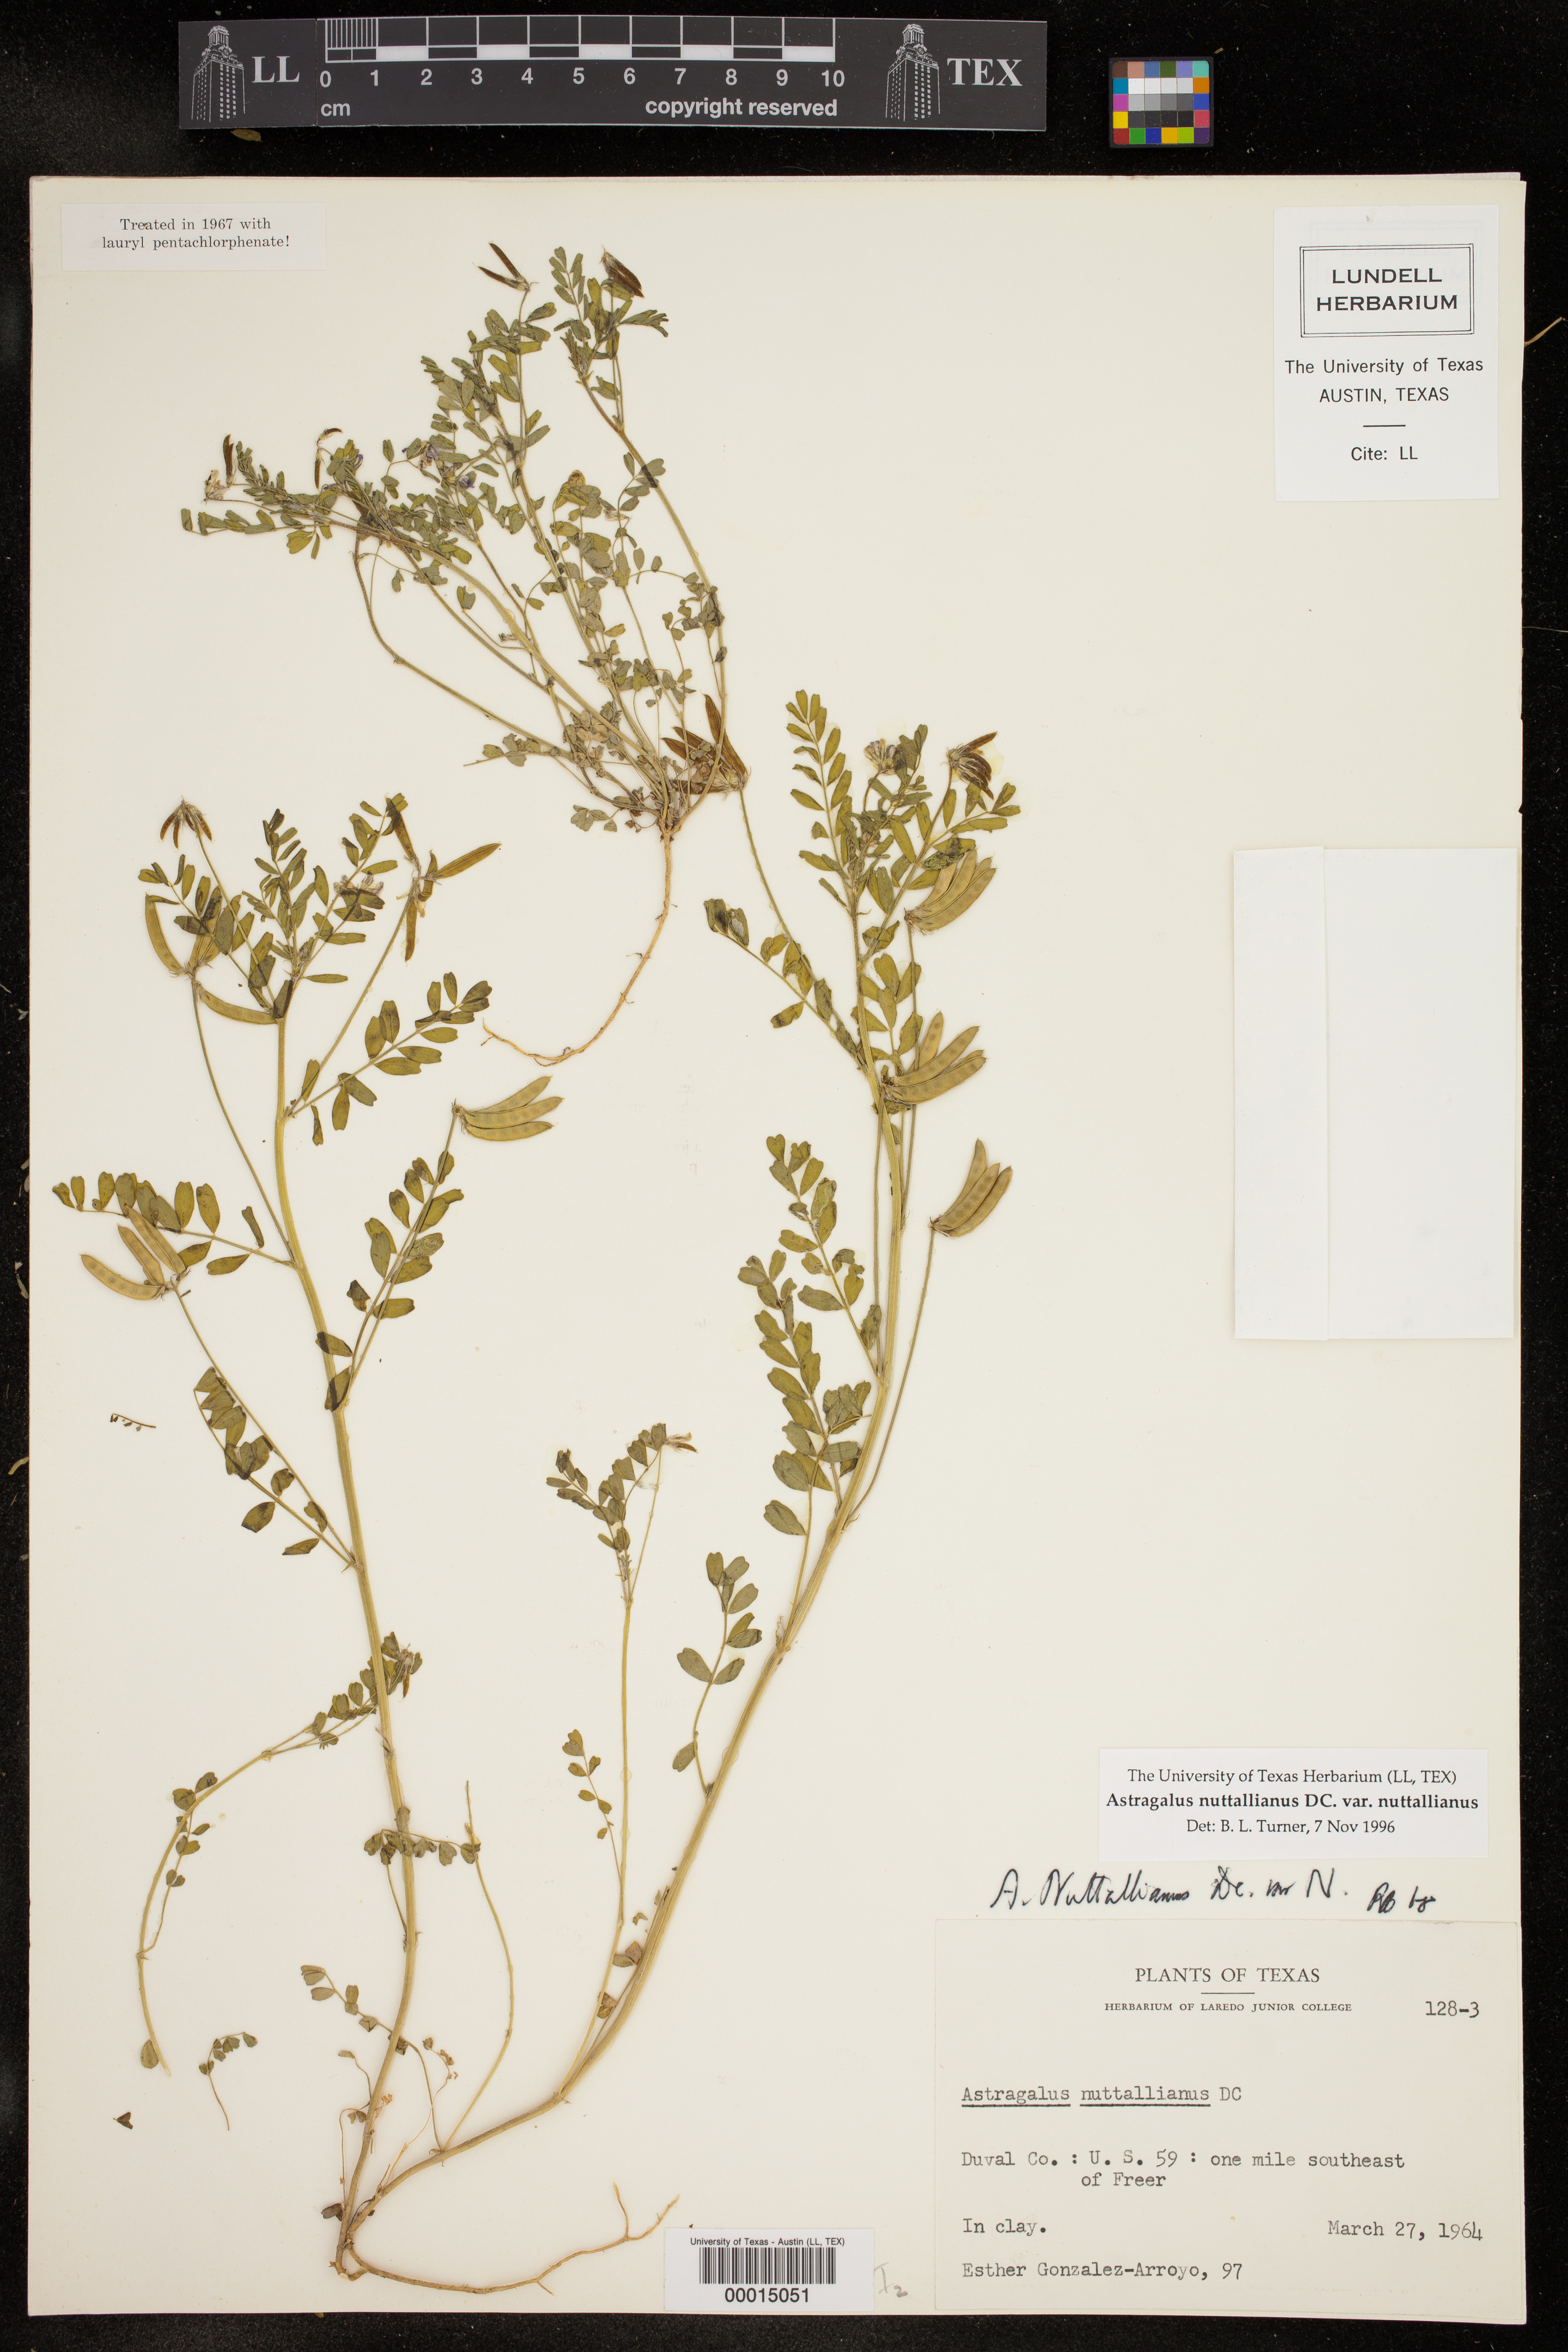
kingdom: Plantae
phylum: Tracheophyta
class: Magnoliopsida
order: Fabales
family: Fabaceae
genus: Astragalus
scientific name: Astragalus nuttallianus
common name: Smallflowered milkvetch
